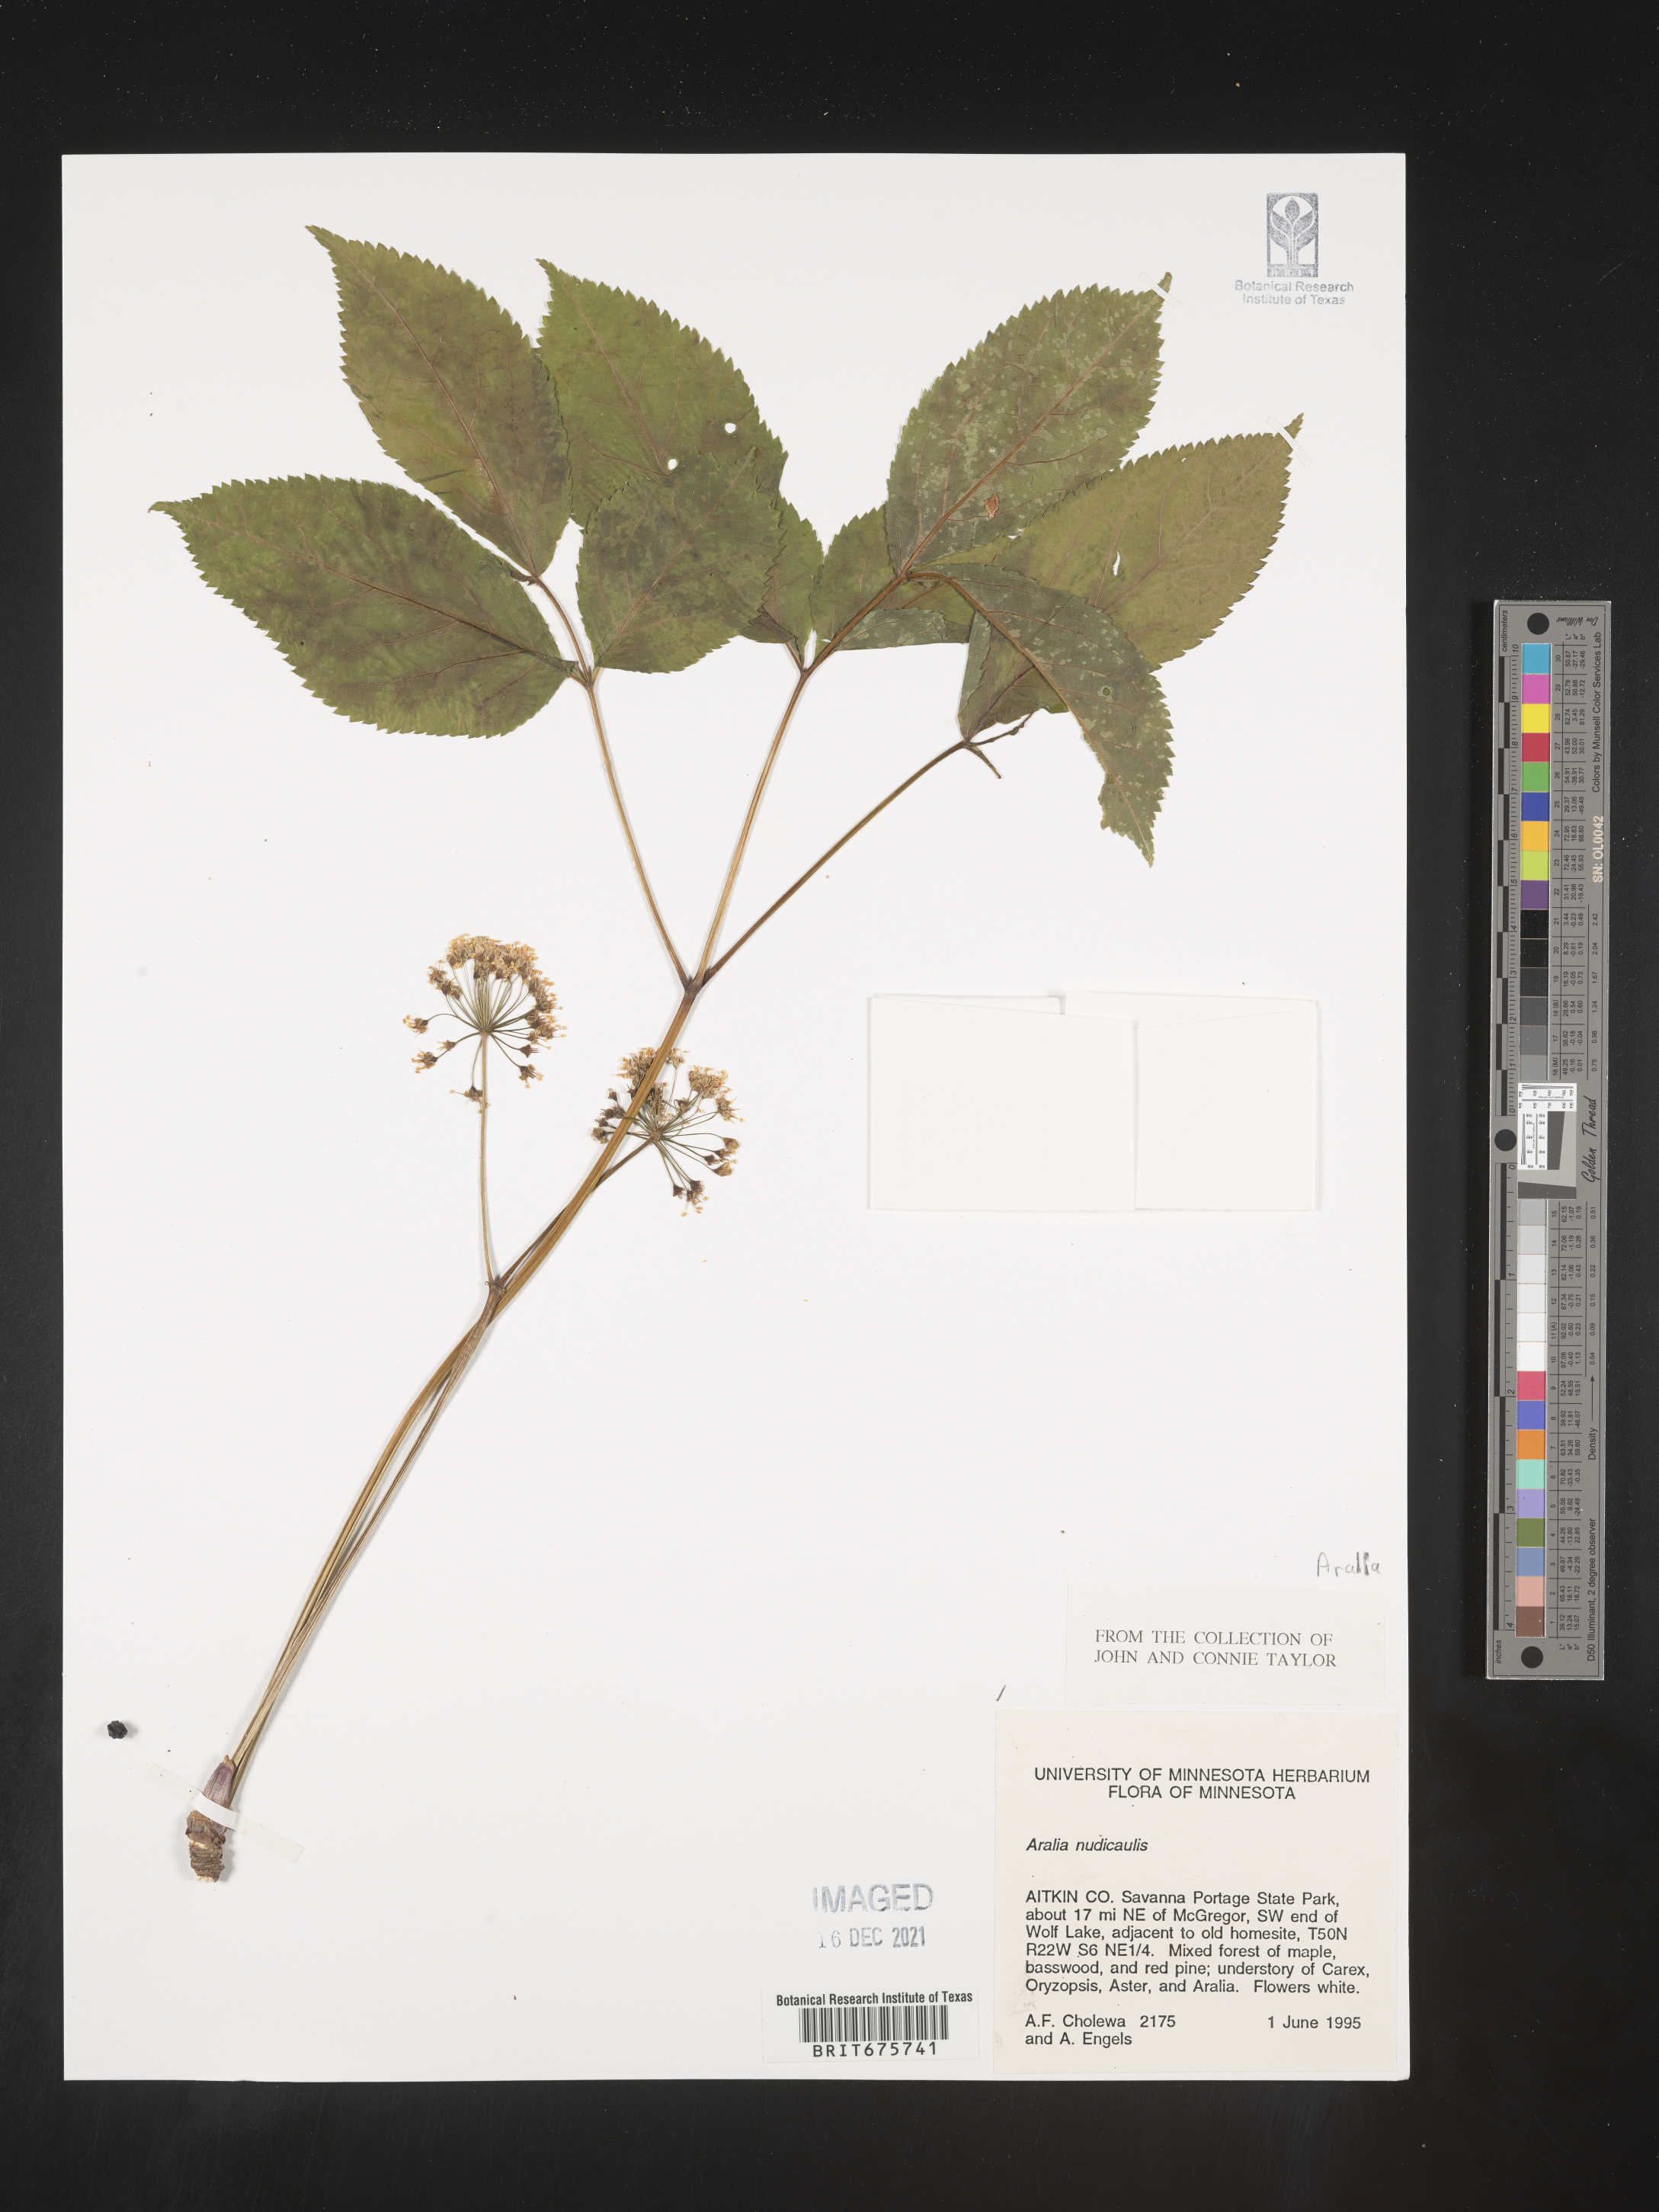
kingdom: Plantae
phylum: Tracheophyta
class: Magnoliopsida
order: Apiales
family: Araliaceae
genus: Aralia
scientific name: Aralia nudicaulis
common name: Wild sarsaparilla
